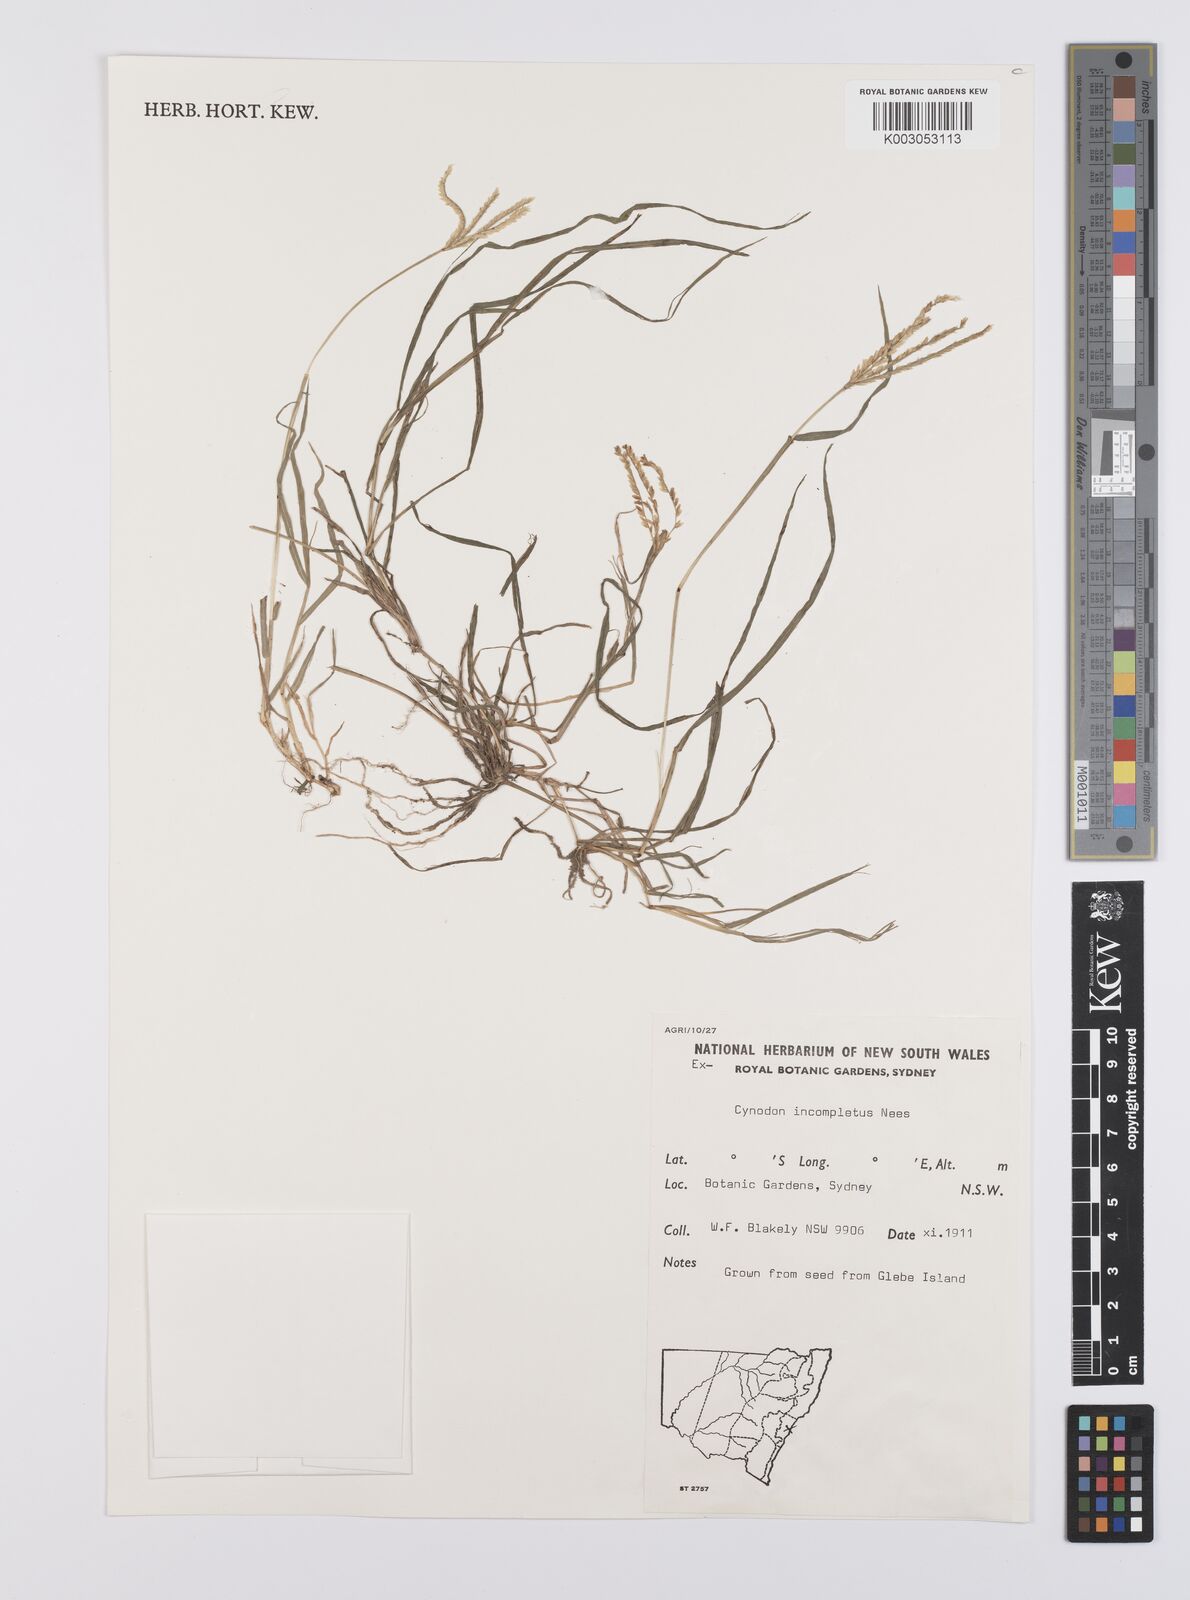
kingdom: Plantae
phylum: Tracheophyta
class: Liliopsida
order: Poales
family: Poaceae
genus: Cynodon
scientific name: Cynodon incompletus
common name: African bermuda-grass
